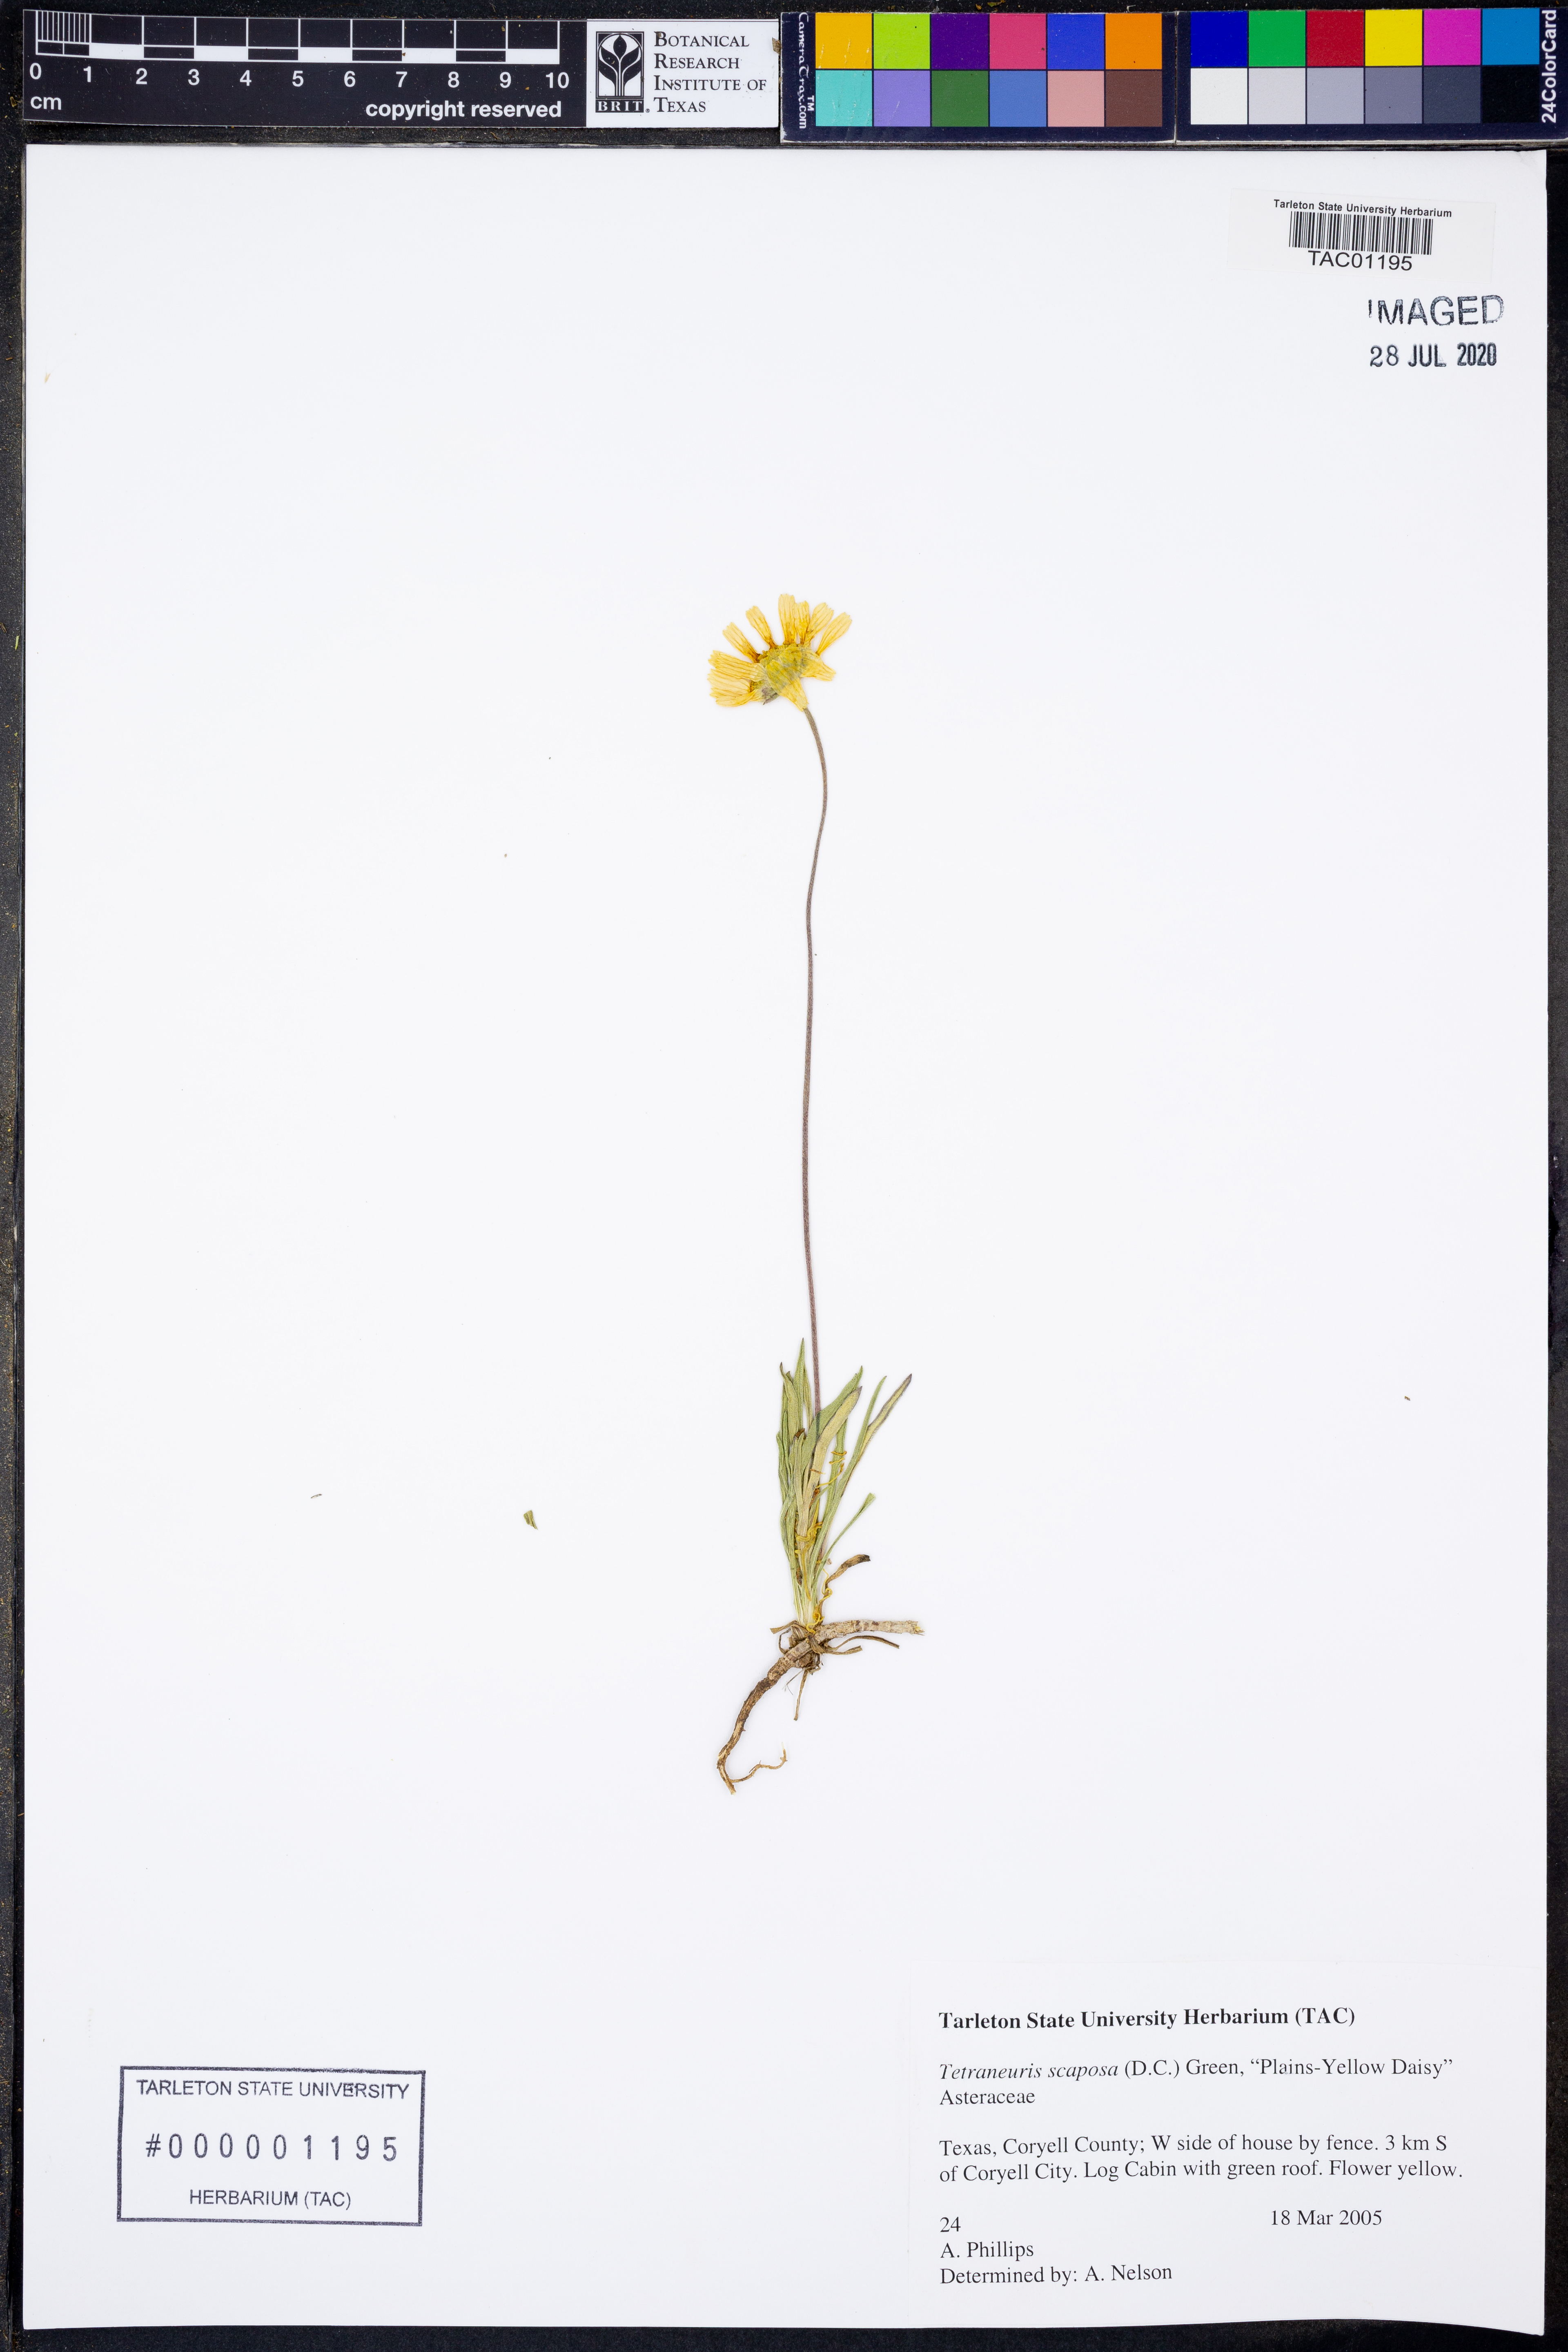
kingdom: Plantae
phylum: Tracheophyta
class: Magnoliopsida
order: Asterales
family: Asteraceae
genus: Tetraneuris
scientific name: Tetraneuris scaposa
